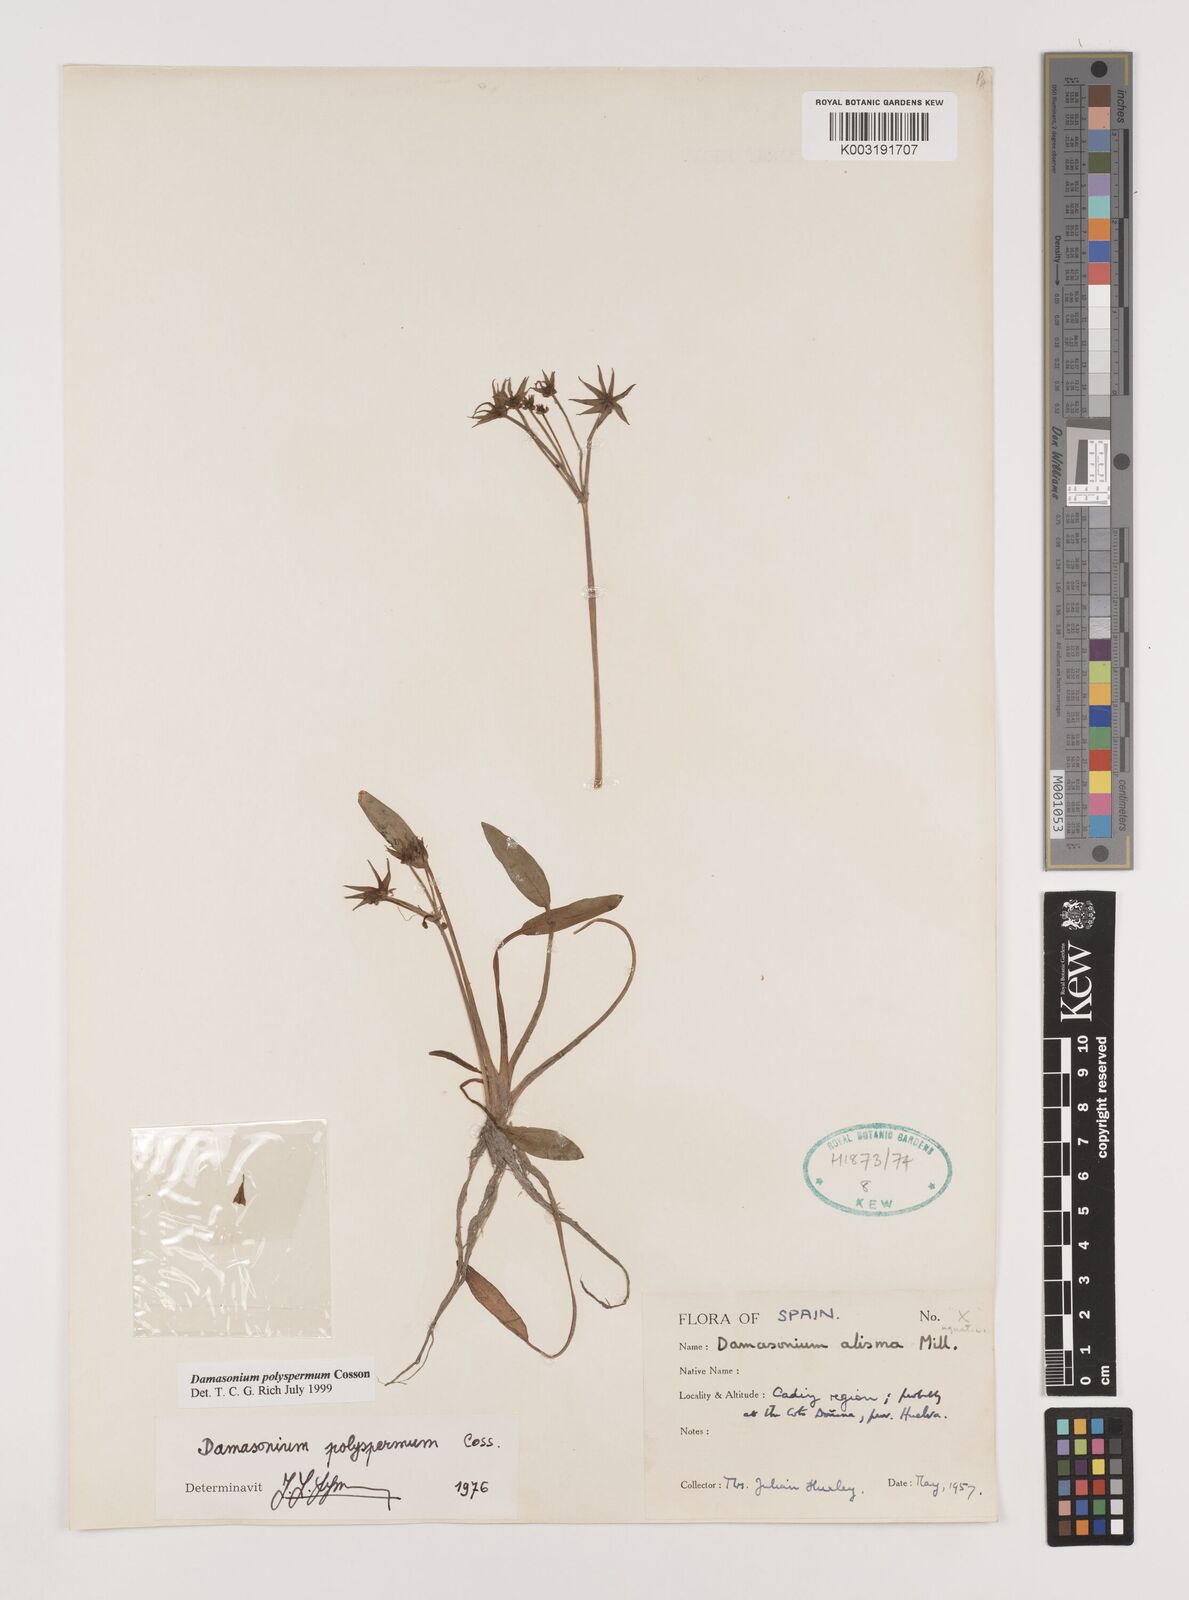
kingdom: Plantae
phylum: Tracheophyta
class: Liliopsida
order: Alismatales
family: Alismataceae
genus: Damasonium
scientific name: Damasonium polyspermum
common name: Starfruit
